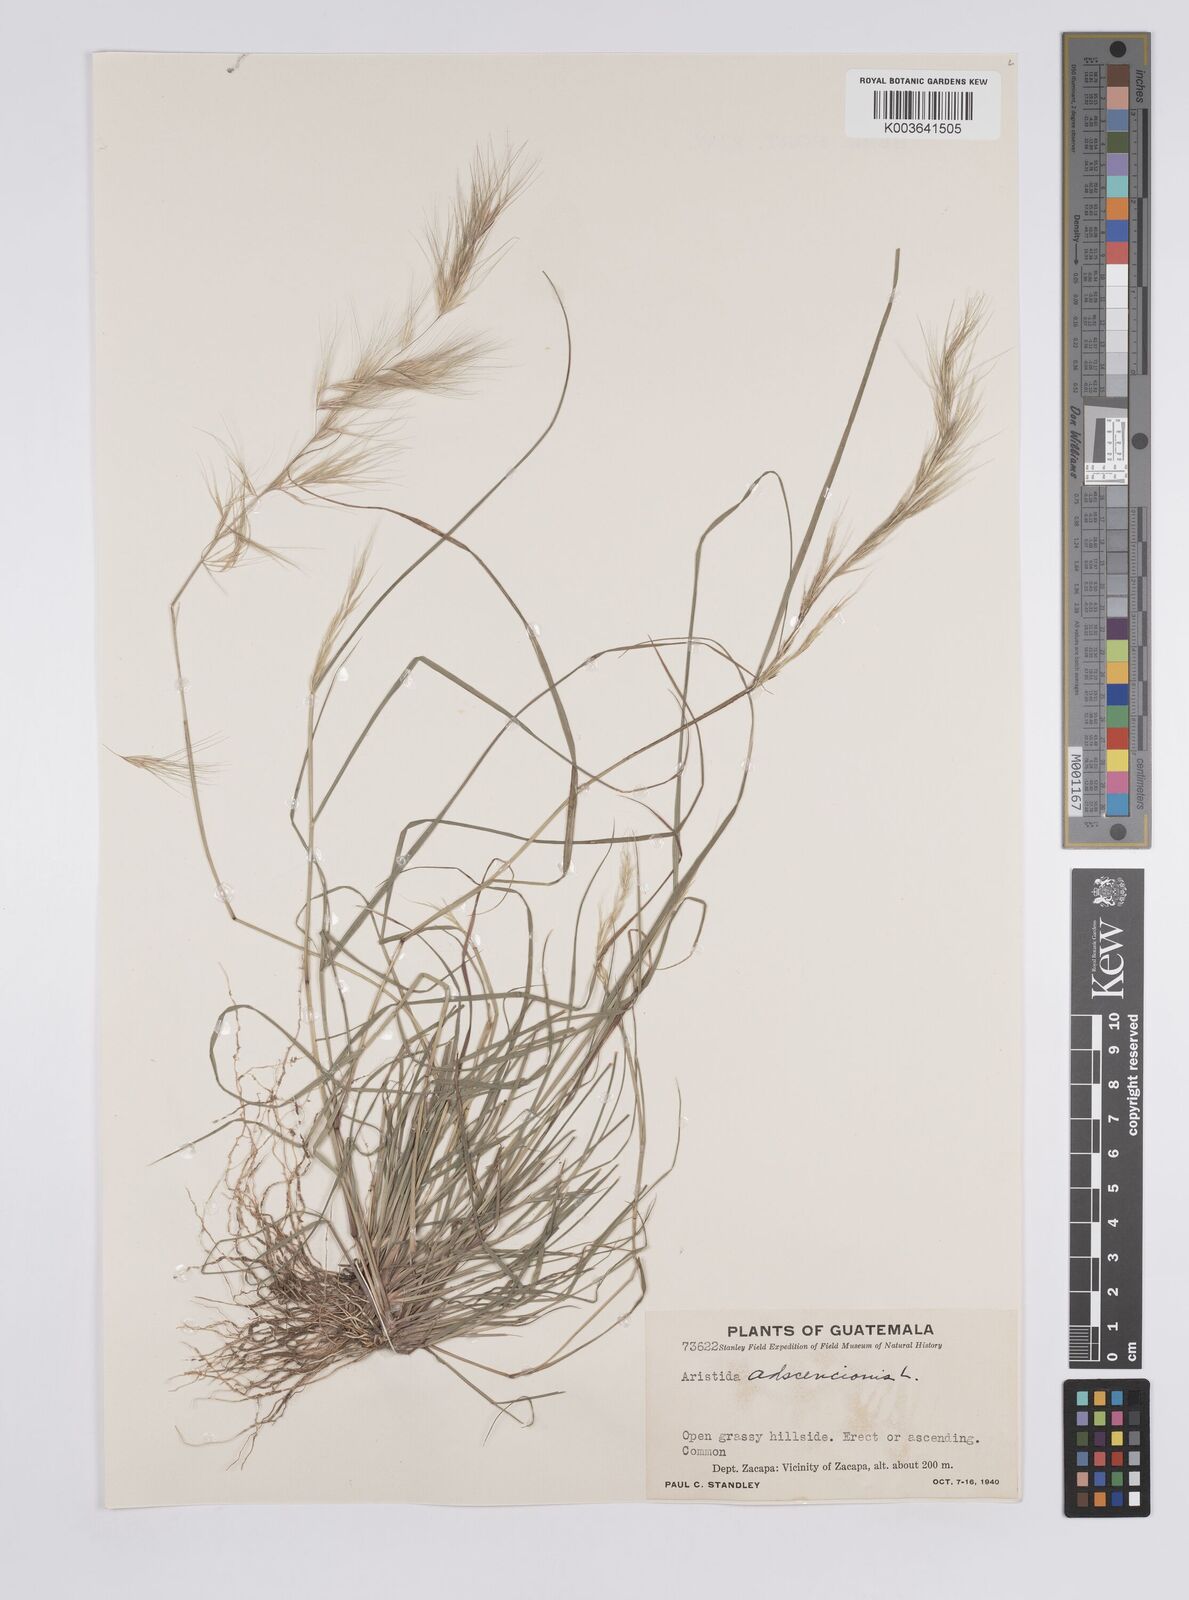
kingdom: Plantae
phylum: Tracheophyta
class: Liliopsida
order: Poales
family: Poaceae
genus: Aristida
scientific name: Aristida adscensionis
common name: Sixweeks threeawn
